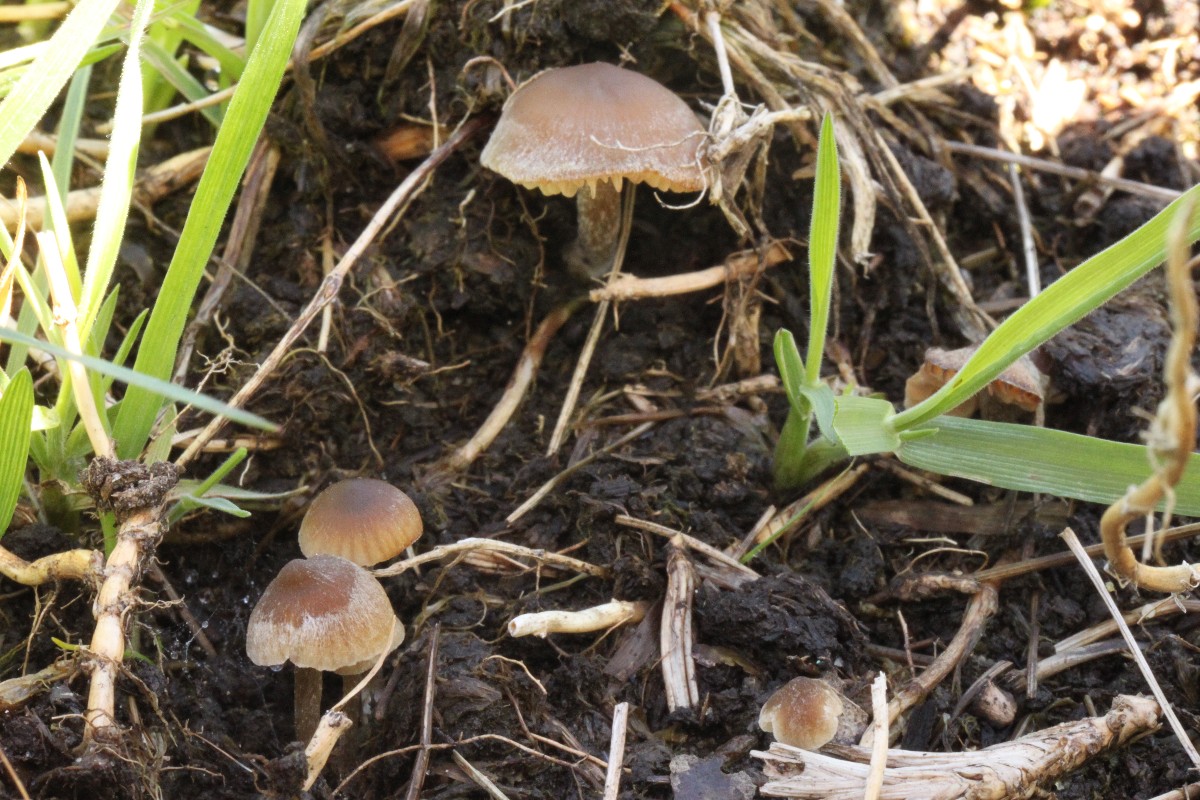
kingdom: Fungi
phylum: Basidiomycota
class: Agaricomycetes
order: Agaricales
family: Lyophyllaceae
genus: Sagaranella
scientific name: Sagaranella tylicolor
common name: kvælstof-gråblad
